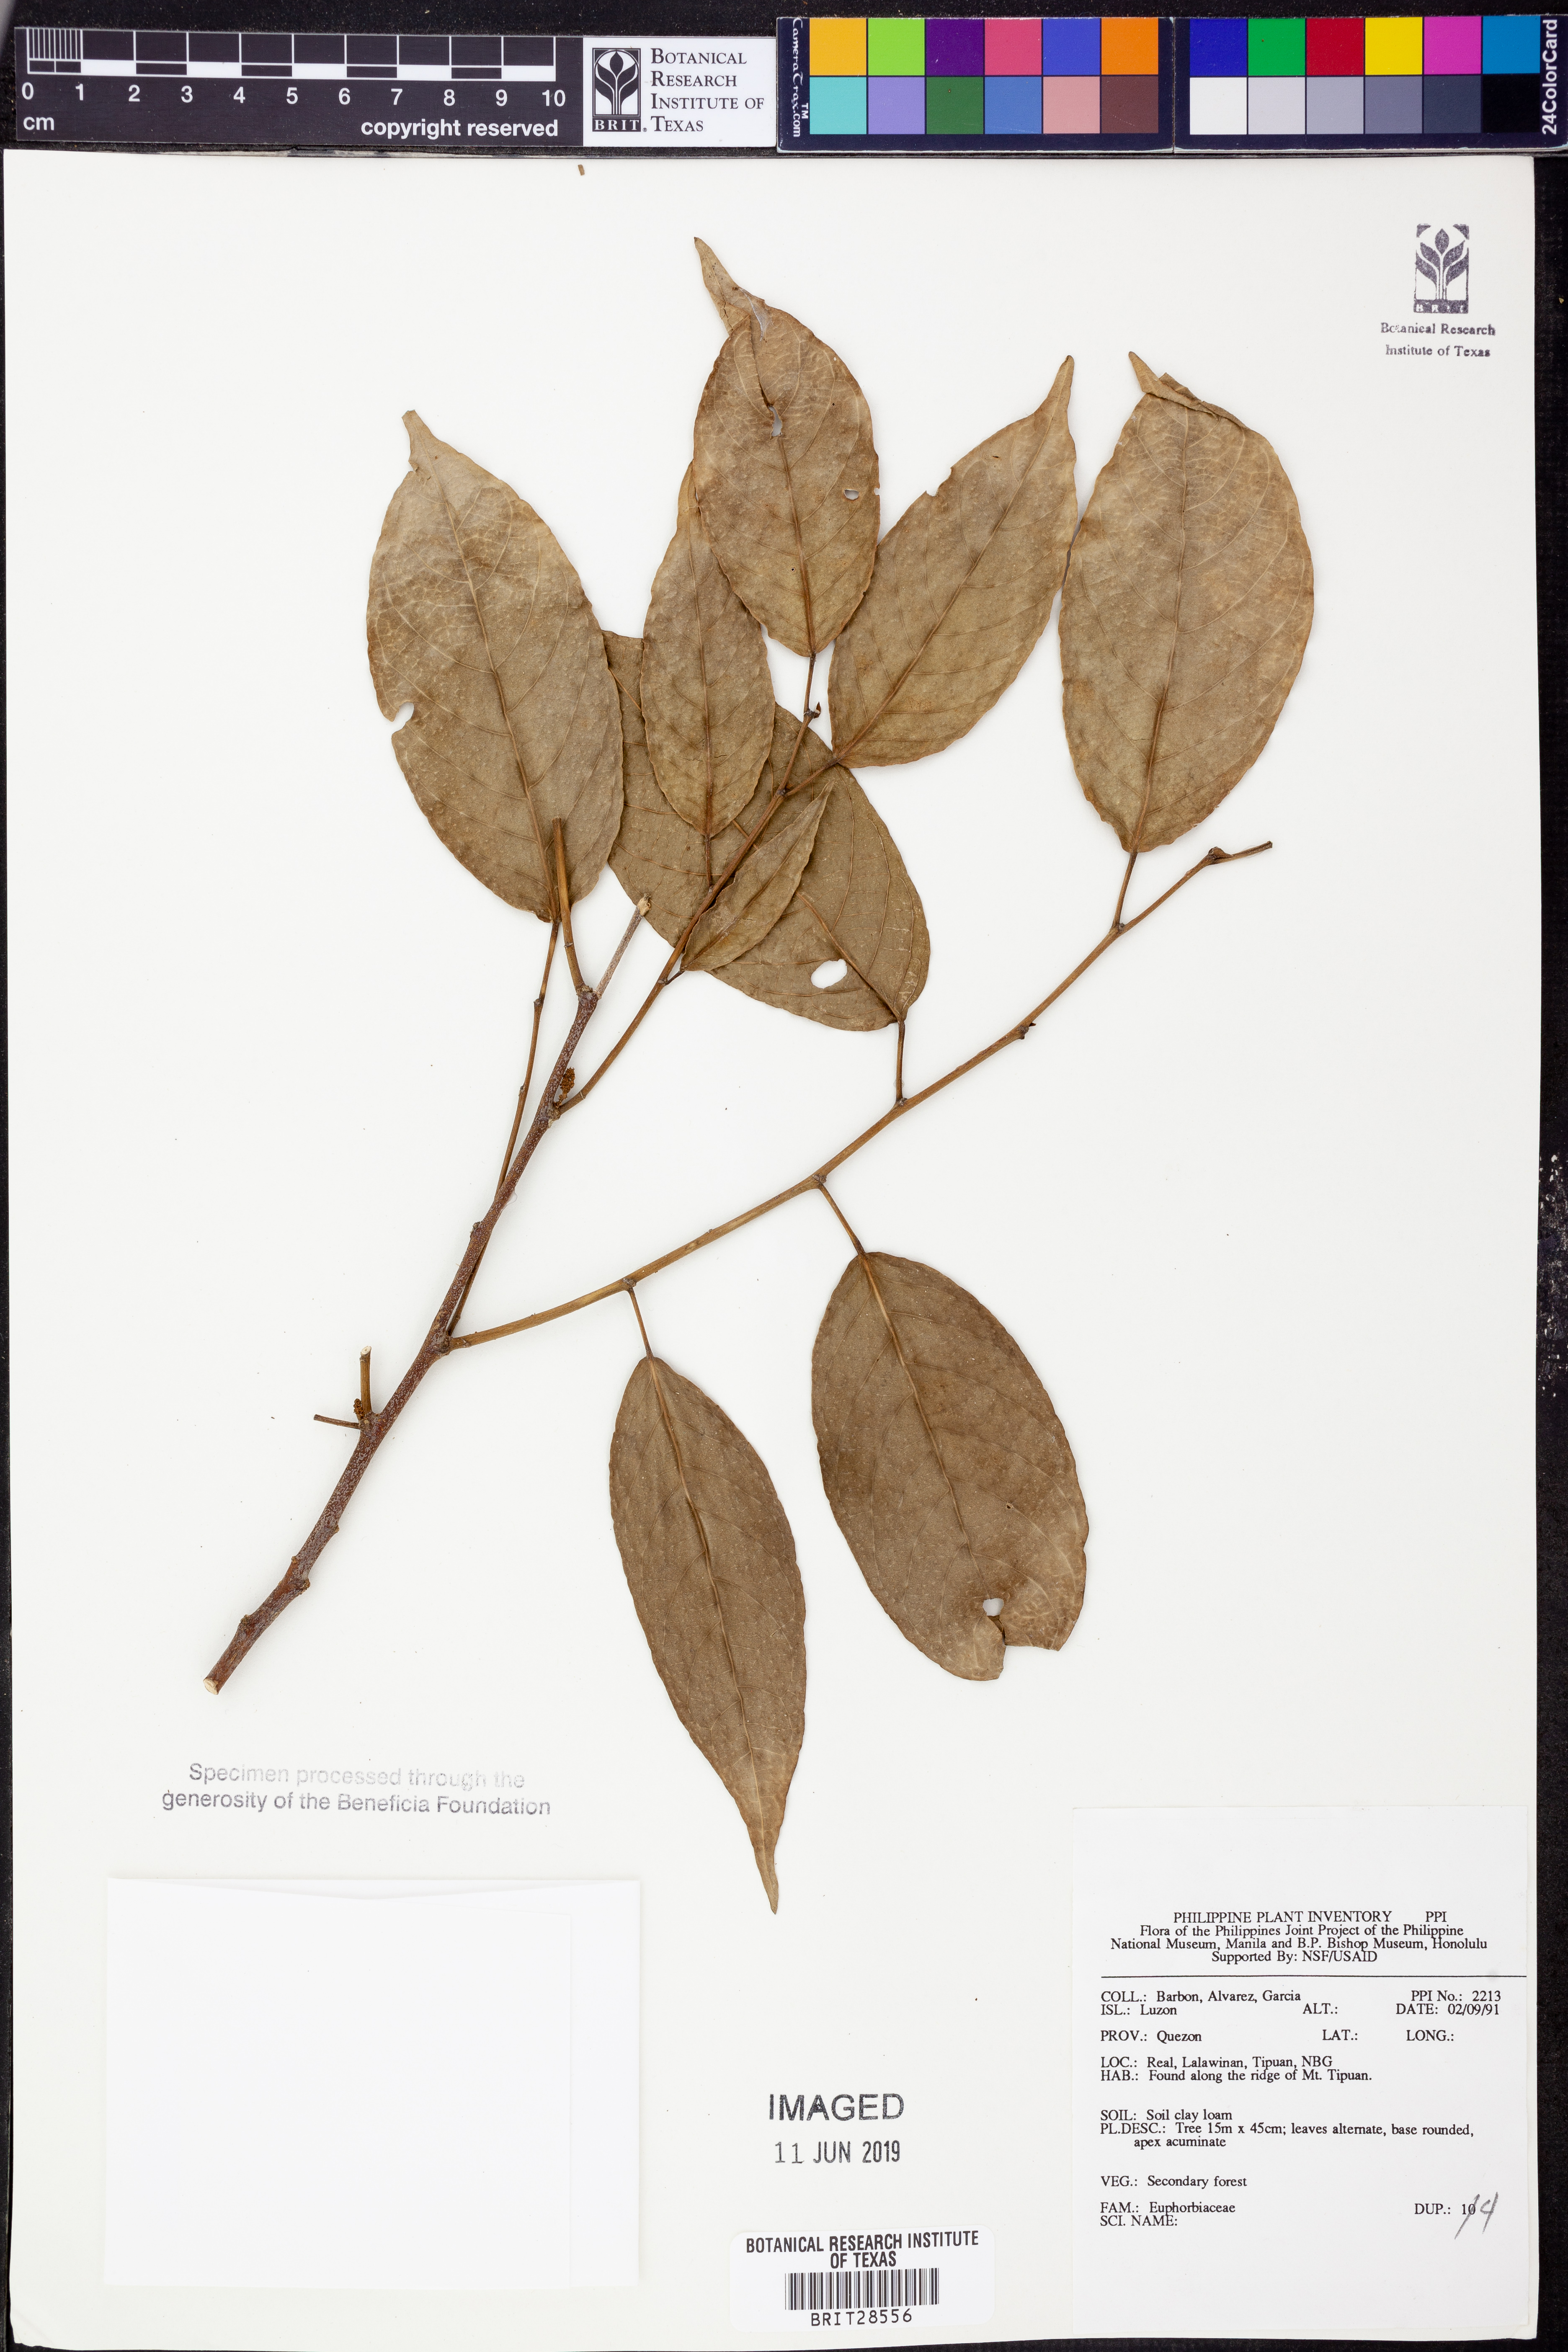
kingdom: Plantae
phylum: Tracheophyta
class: Magnoliopsida
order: Malpighiales
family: Euphorbiaceae
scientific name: Euphorbiaceae
